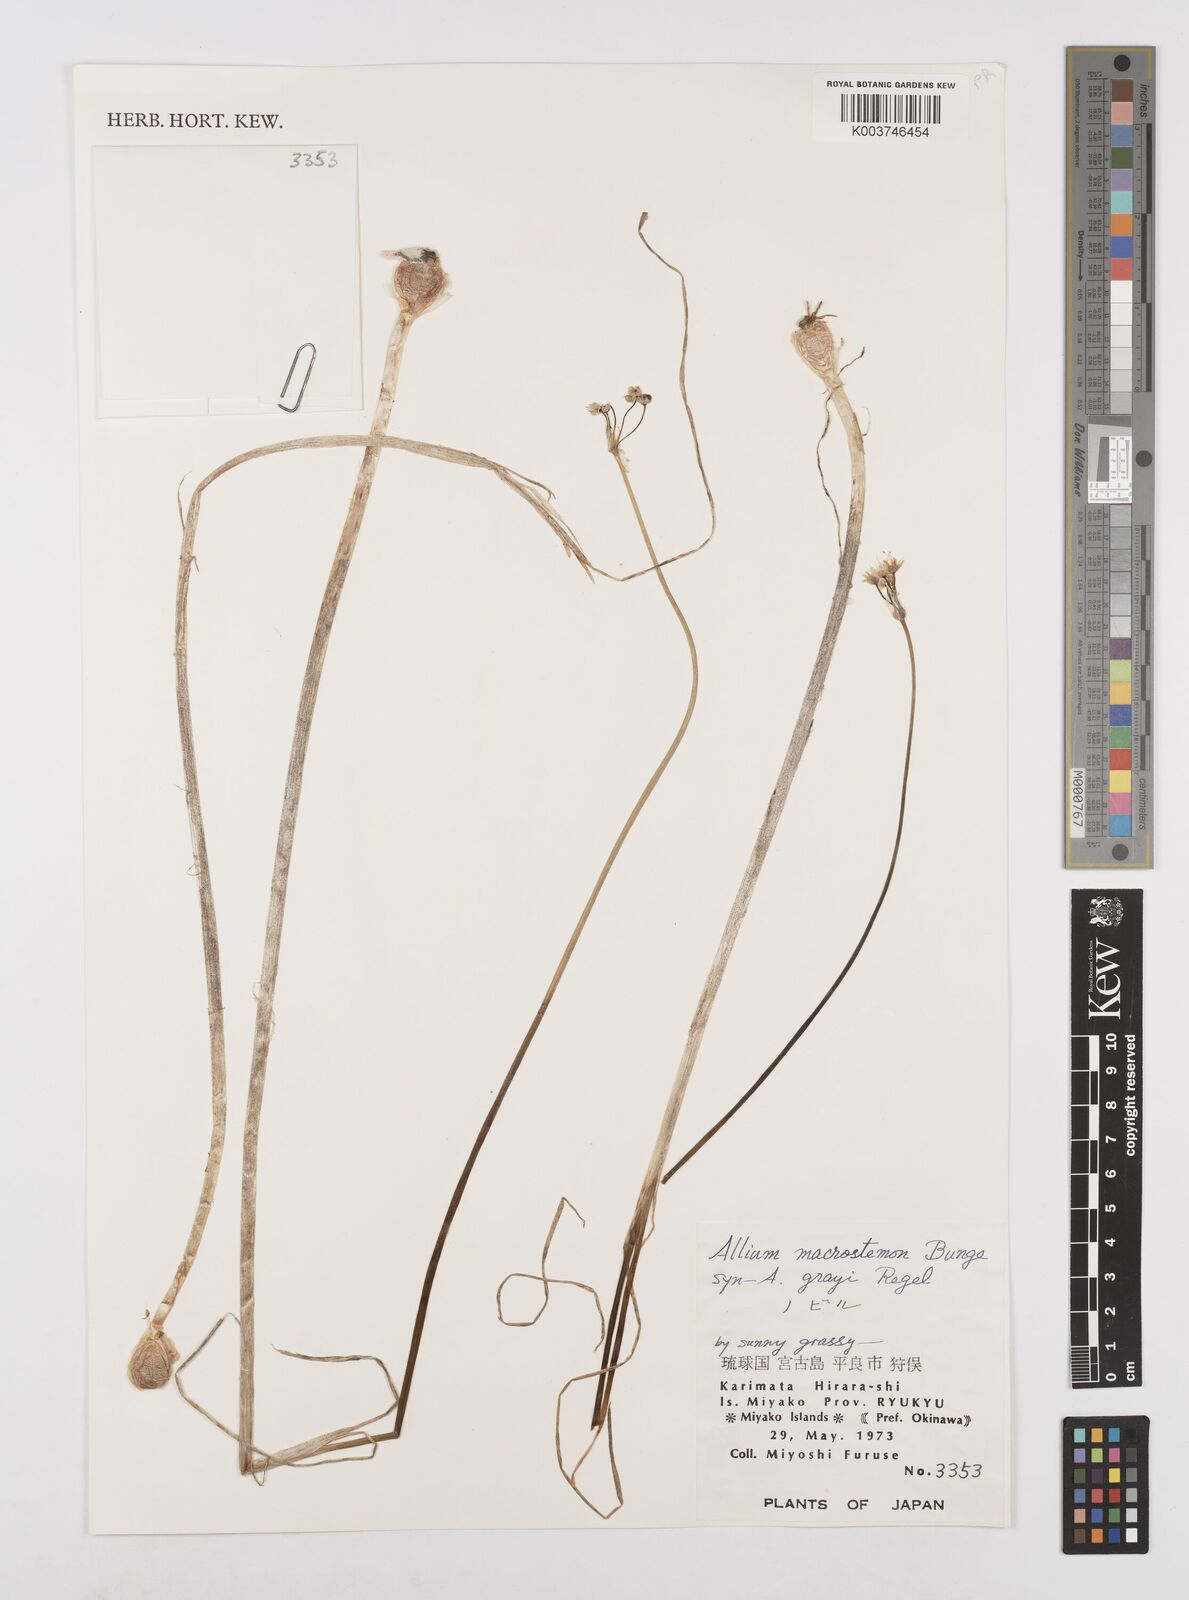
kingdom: Plantae
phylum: Tracheophyta
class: Liliopsida
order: Asparagales
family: Amaryllidaceae
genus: Allium
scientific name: Allium macrostemon
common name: Chinese garlic
